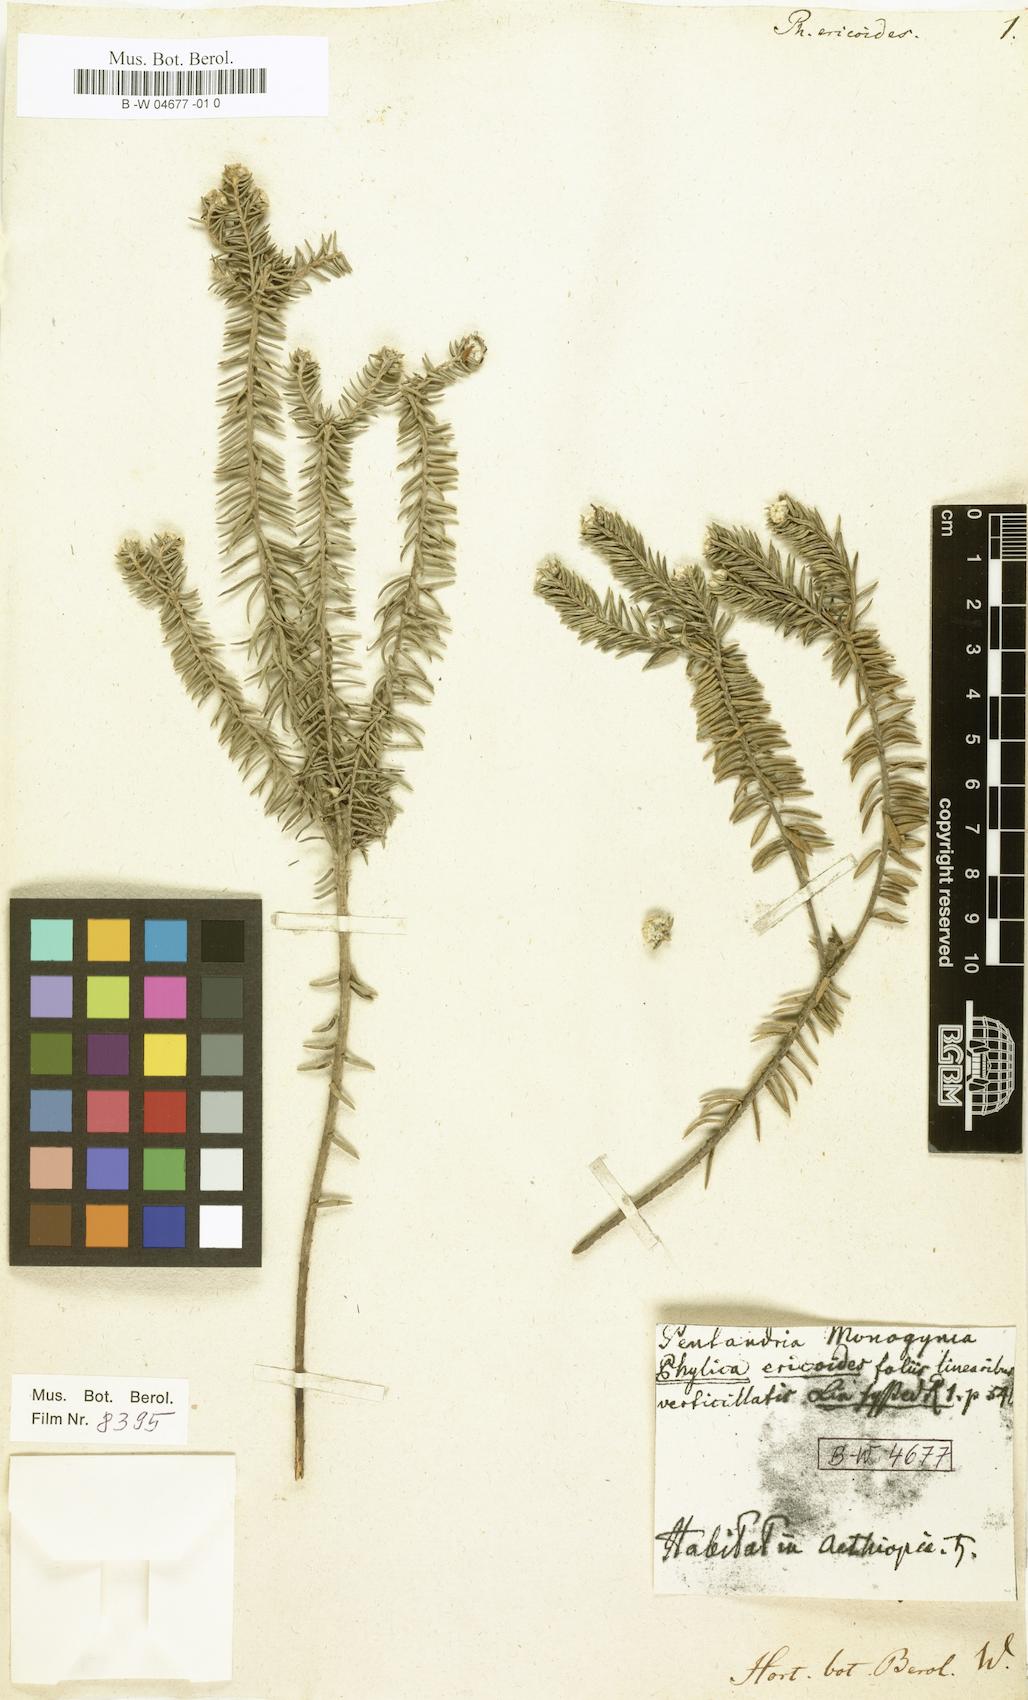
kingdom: Plantae
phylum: Tracheophyta
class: Magnoliopsida
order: Rosales
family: Rhamnaceae
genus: Phylica
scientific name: Phylica ericoides
